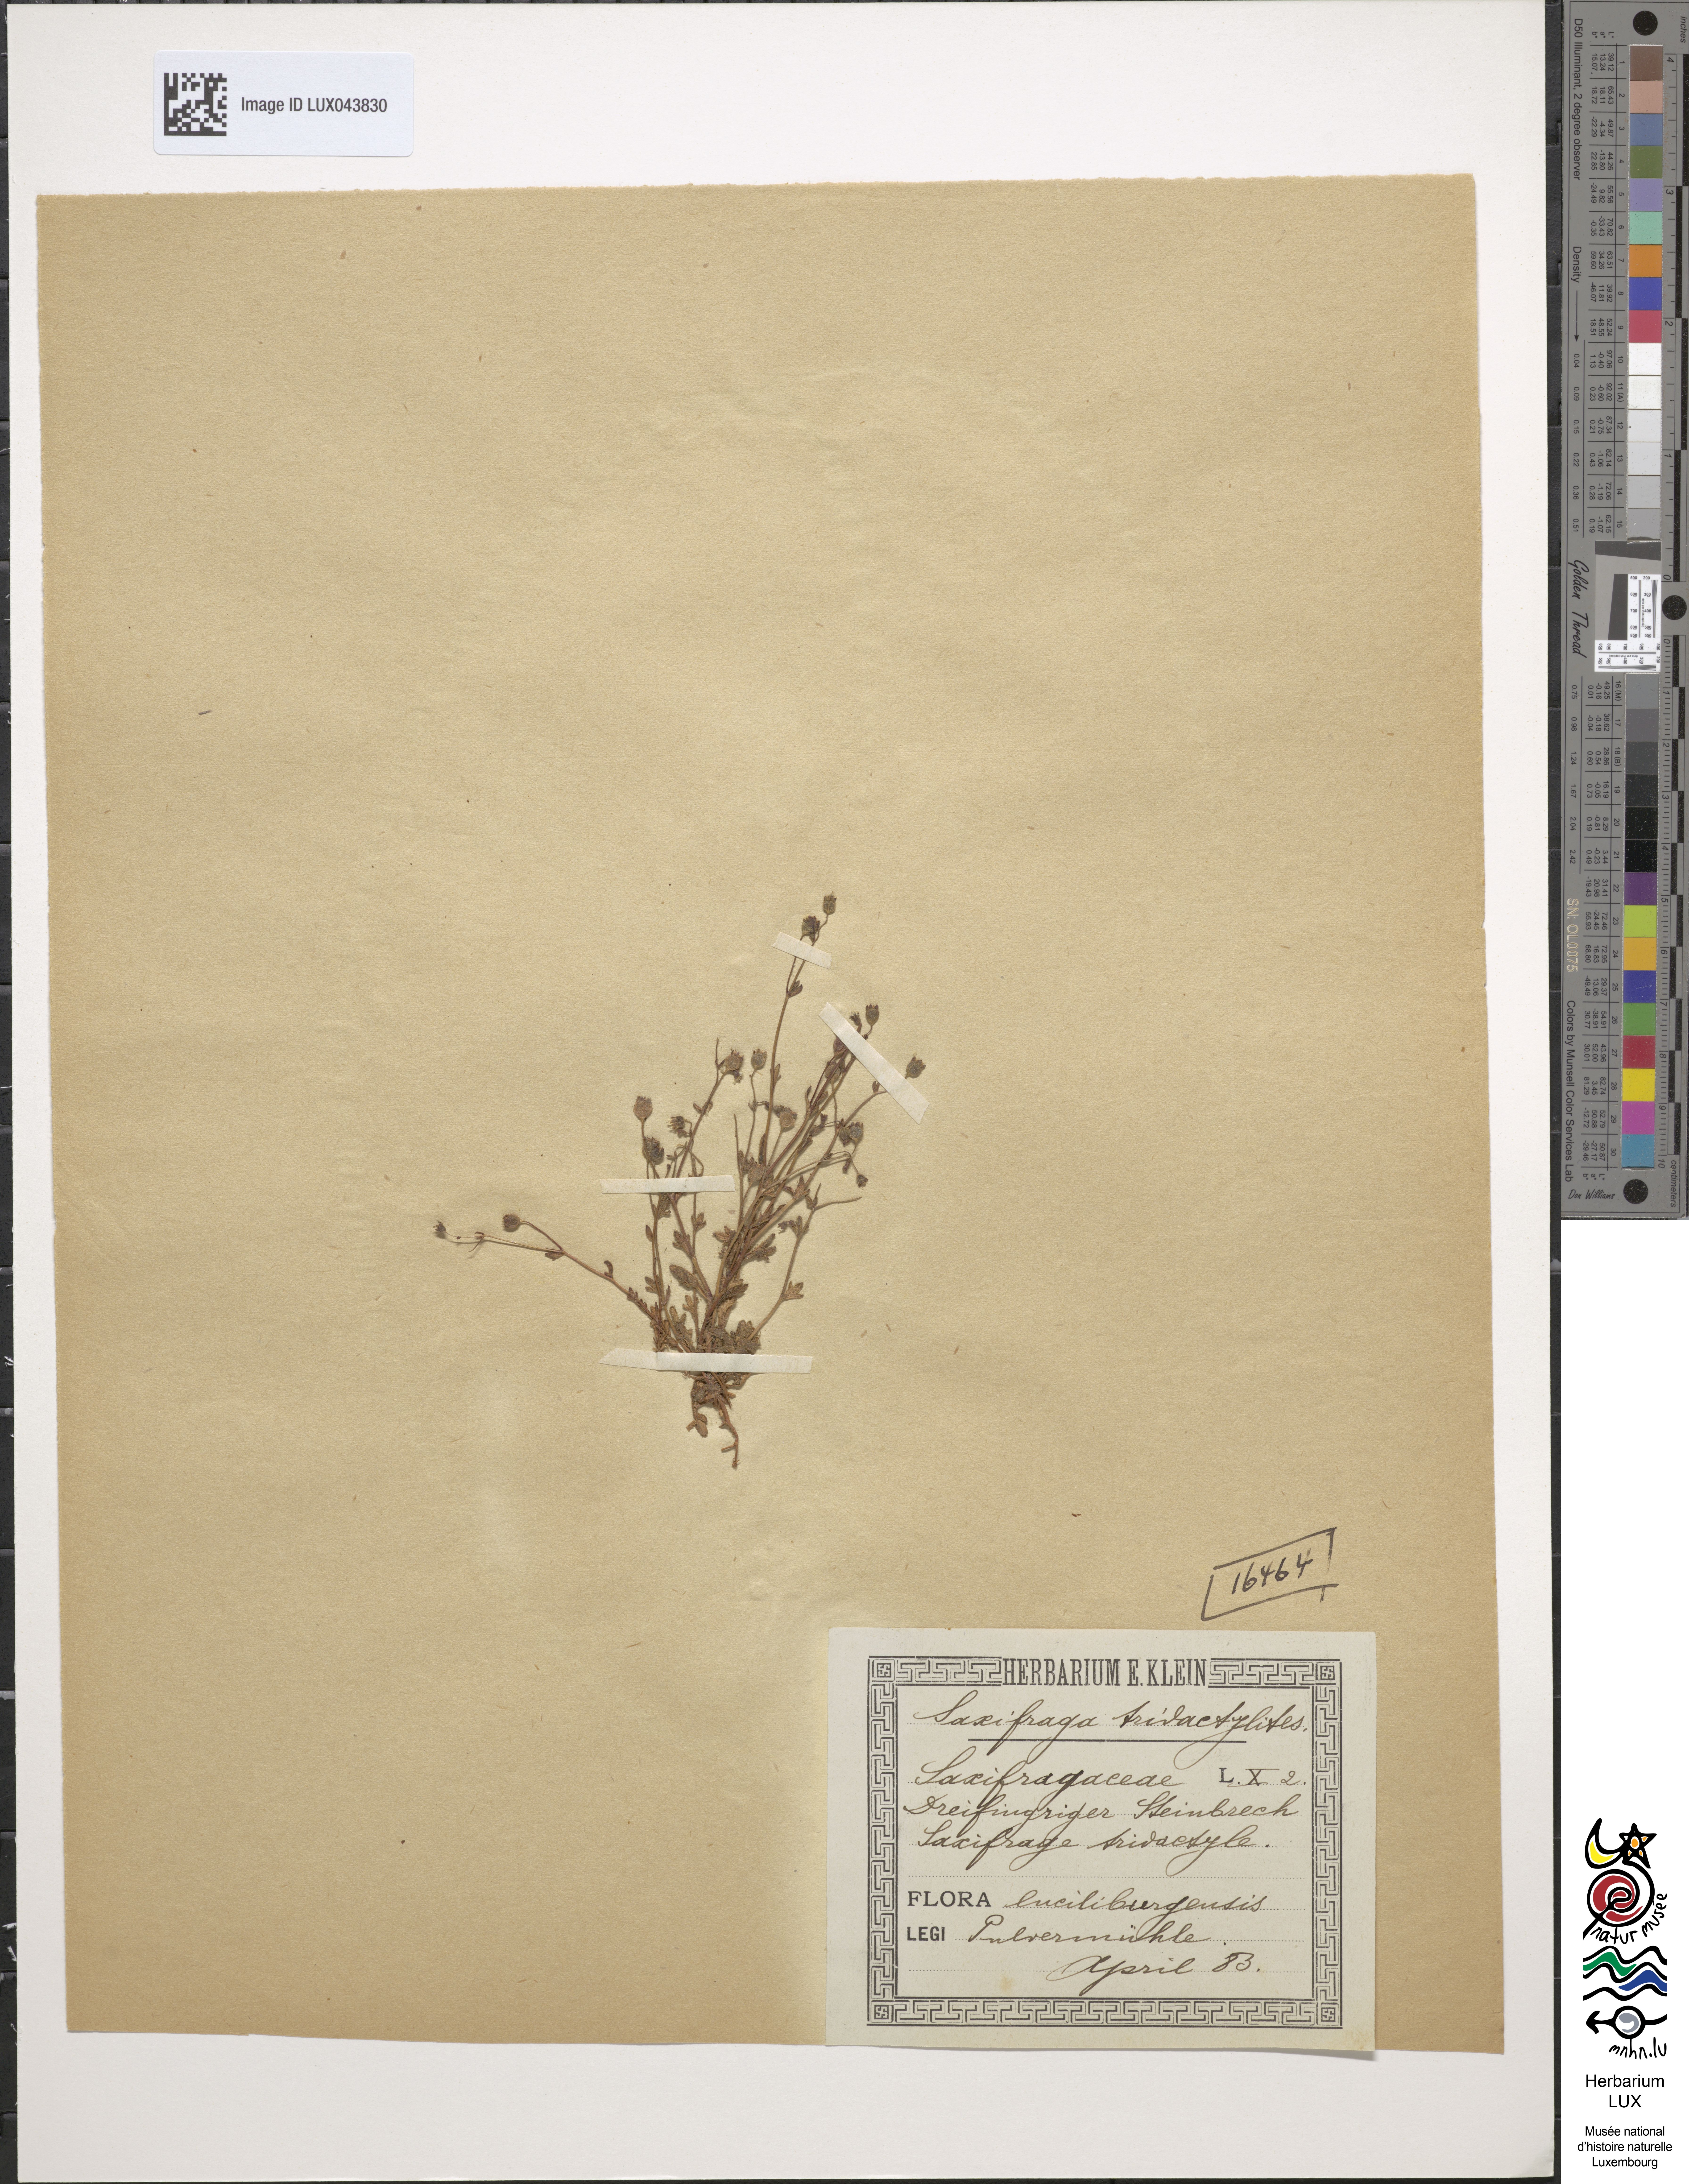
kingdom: Plantae
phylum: Tracheophyta
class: Magnoliopsida
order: Saxifragales
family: Saxifragaceae
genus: Saxifraga
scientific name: Saxifraga tridactylites
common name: Rue-leaved saxifrage
